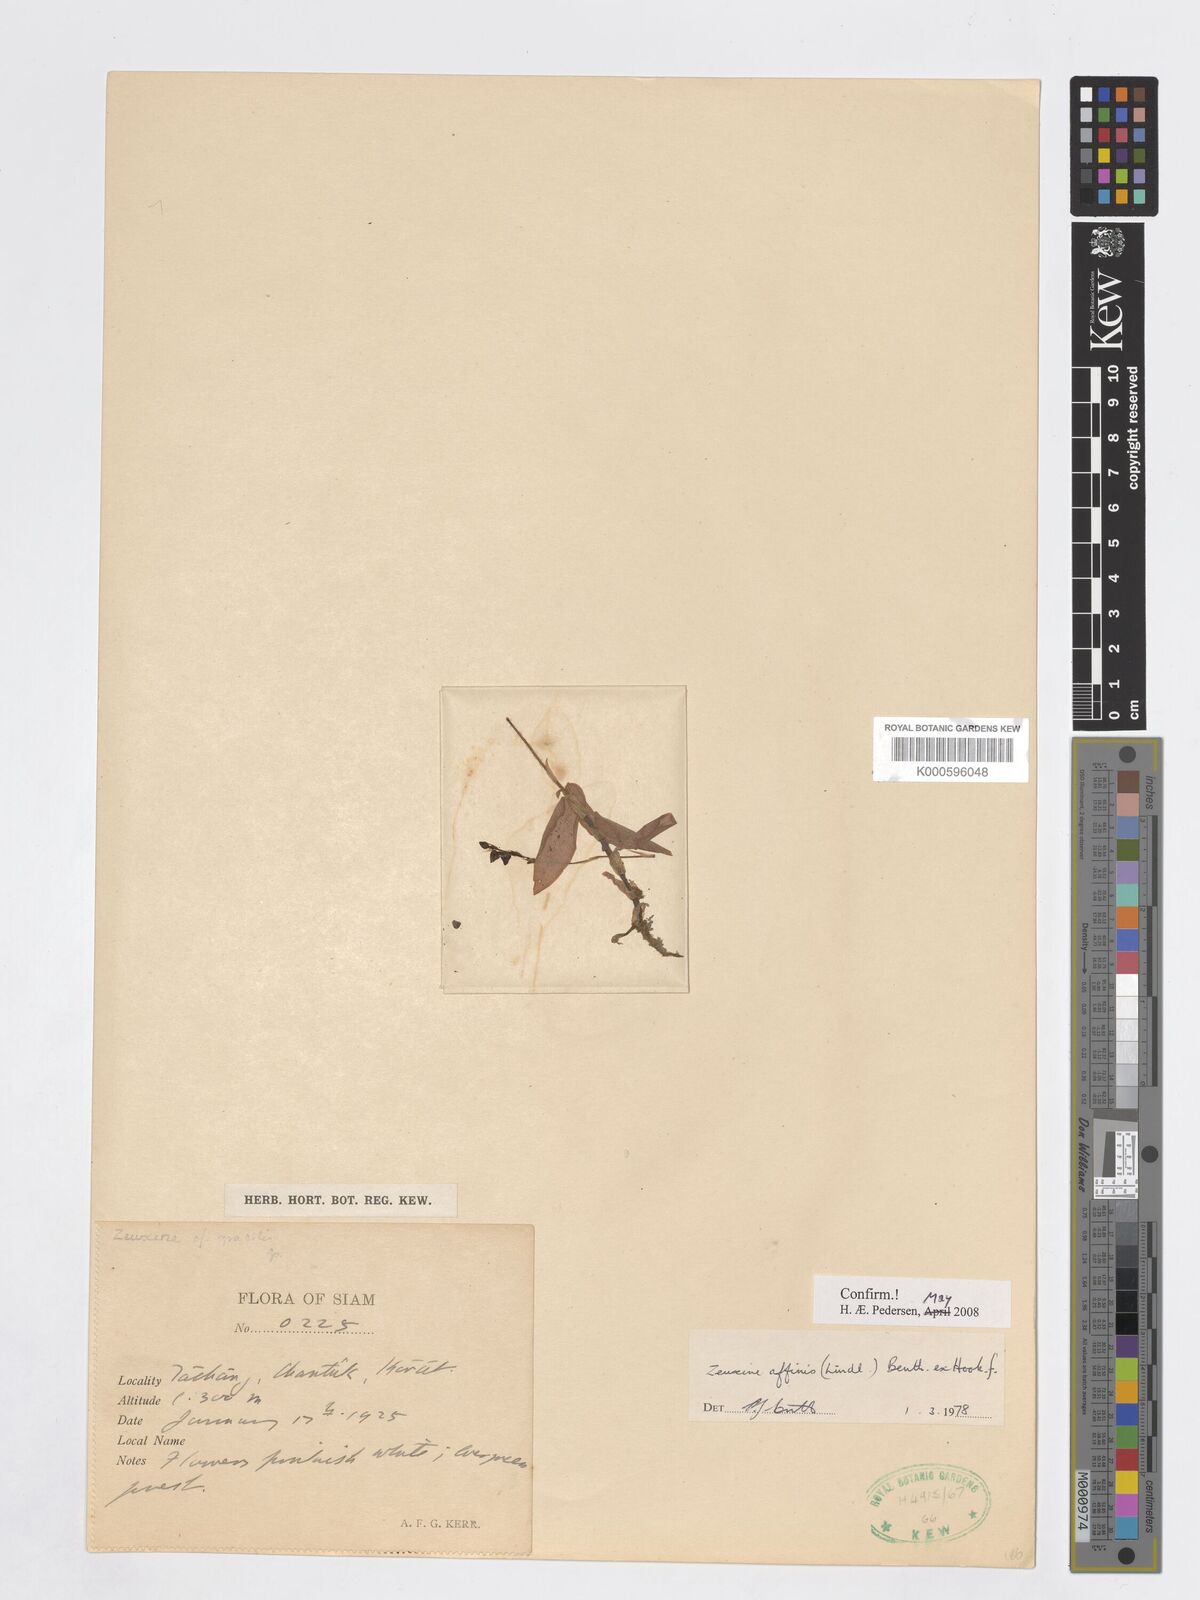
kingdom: Plantae
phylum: Tracheophyta
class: Liliopsida
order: Asparagales
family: Orchidaceae
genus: Zeuxine
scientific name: Zeuxine affinis
